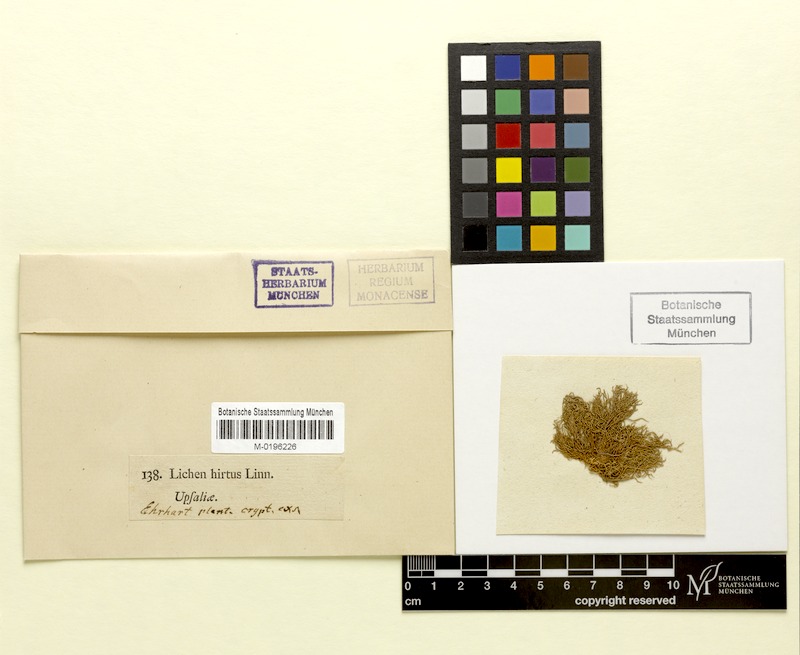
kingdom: Fungi
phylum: Ascomycota
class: Lecanoromycetes
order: Lecanorales
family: Parmeliaceae
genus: Usnea
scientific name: Usnea hirta
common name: Bristly beard lichen
